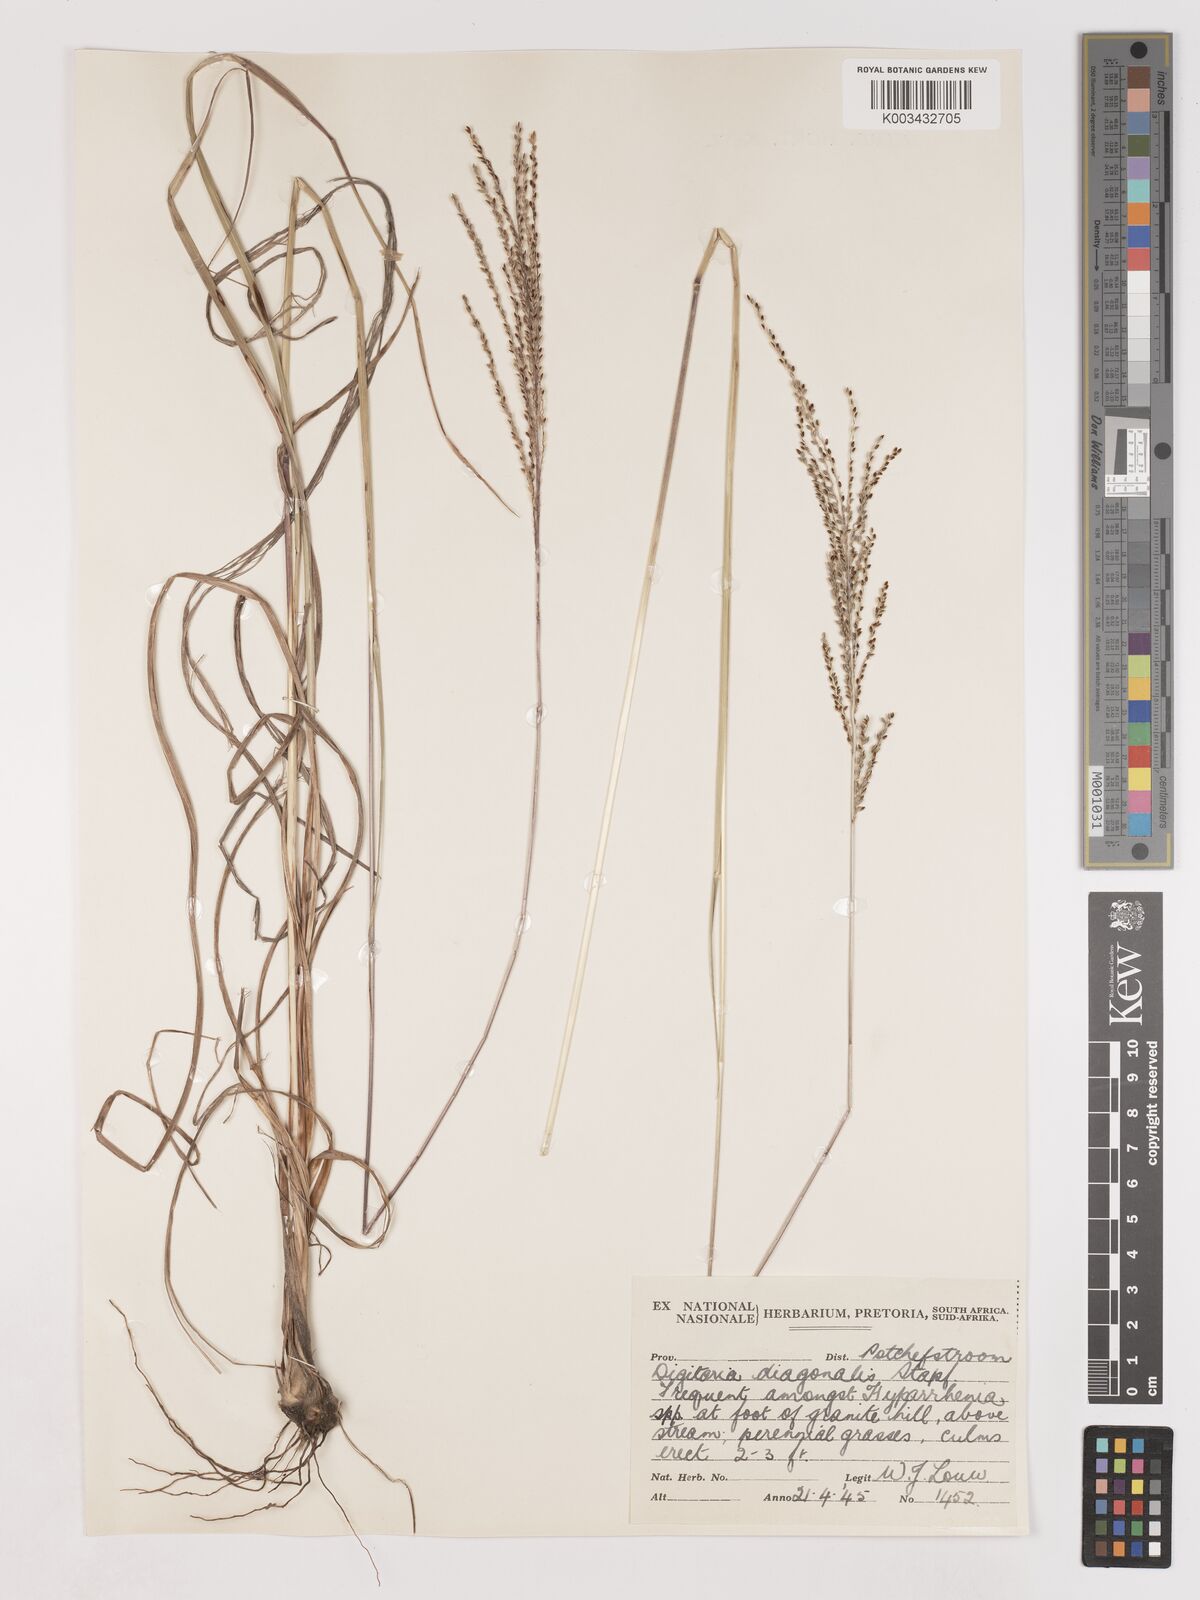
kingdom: Plantae
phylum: Tracheophyta
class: Liliopsida
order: Poales
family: Poaceae
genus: Digitaria
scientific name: Digitaria diagonalis
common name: Brown-seed finger grass
